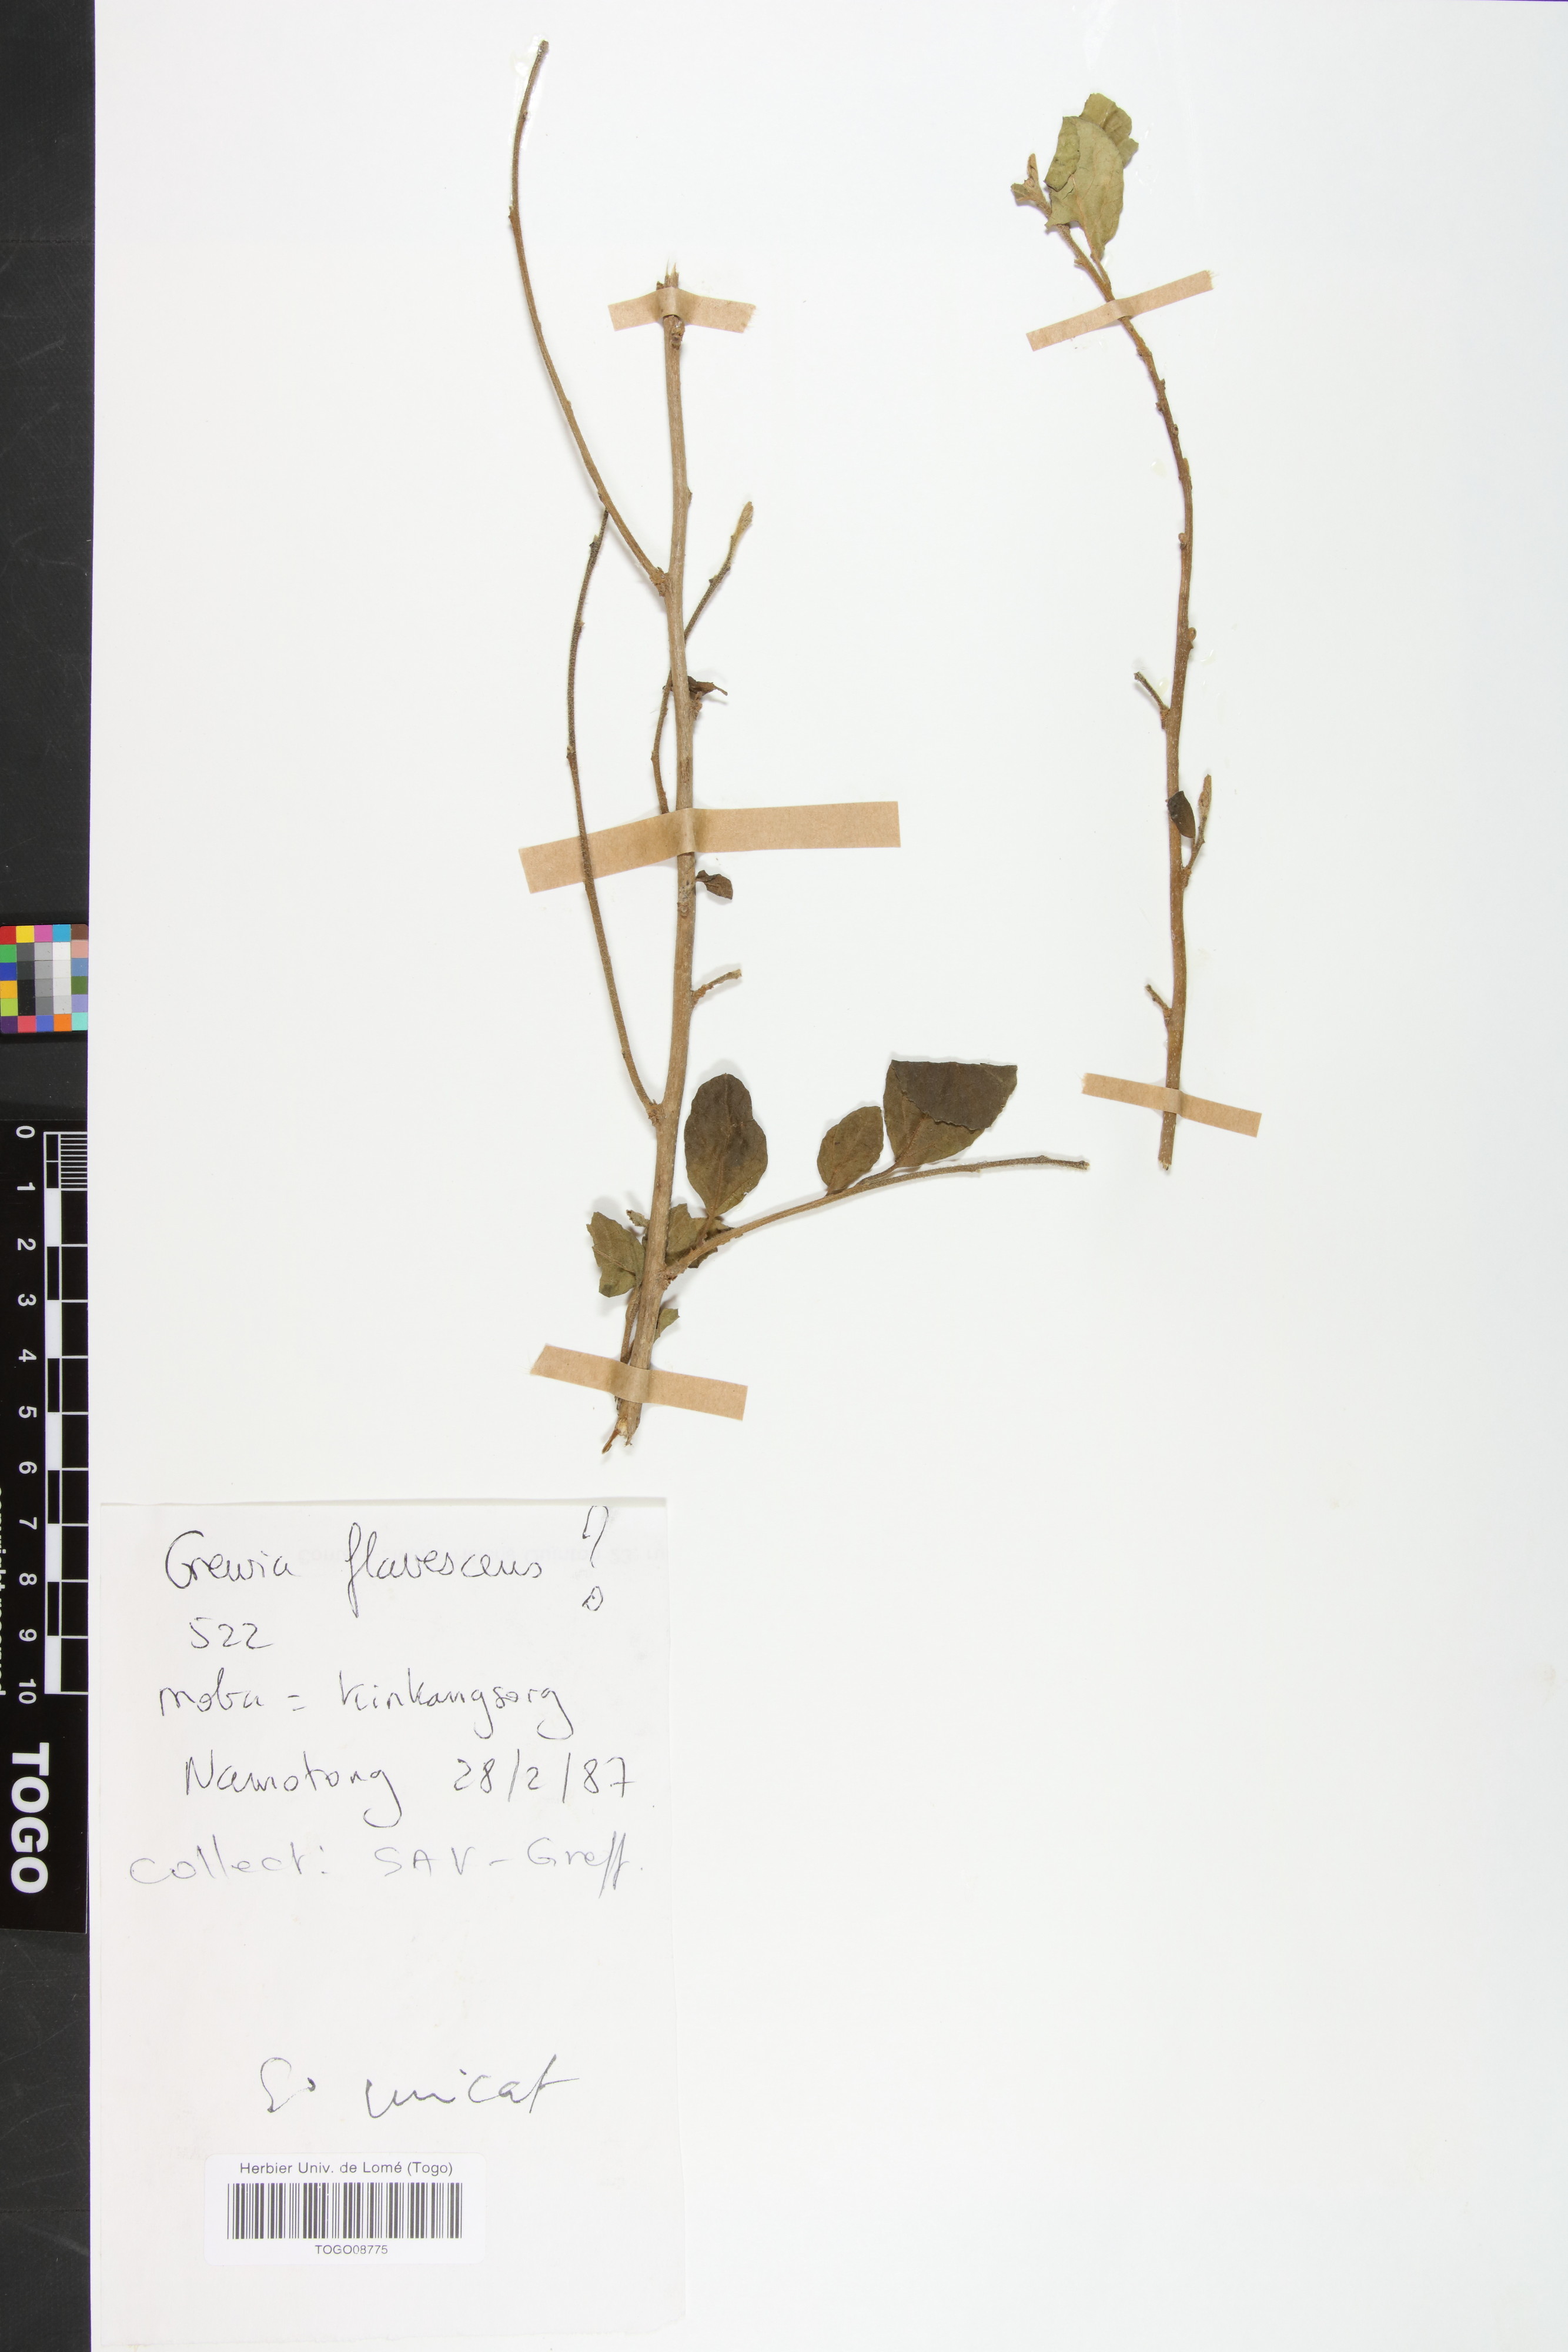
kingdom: Plantae
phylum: Tracheophyta
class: Magnoliopsida
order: Malvales
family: Malvaceae
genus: Grewia
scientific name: Grewia flavescens
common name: Sandpaper raisin
